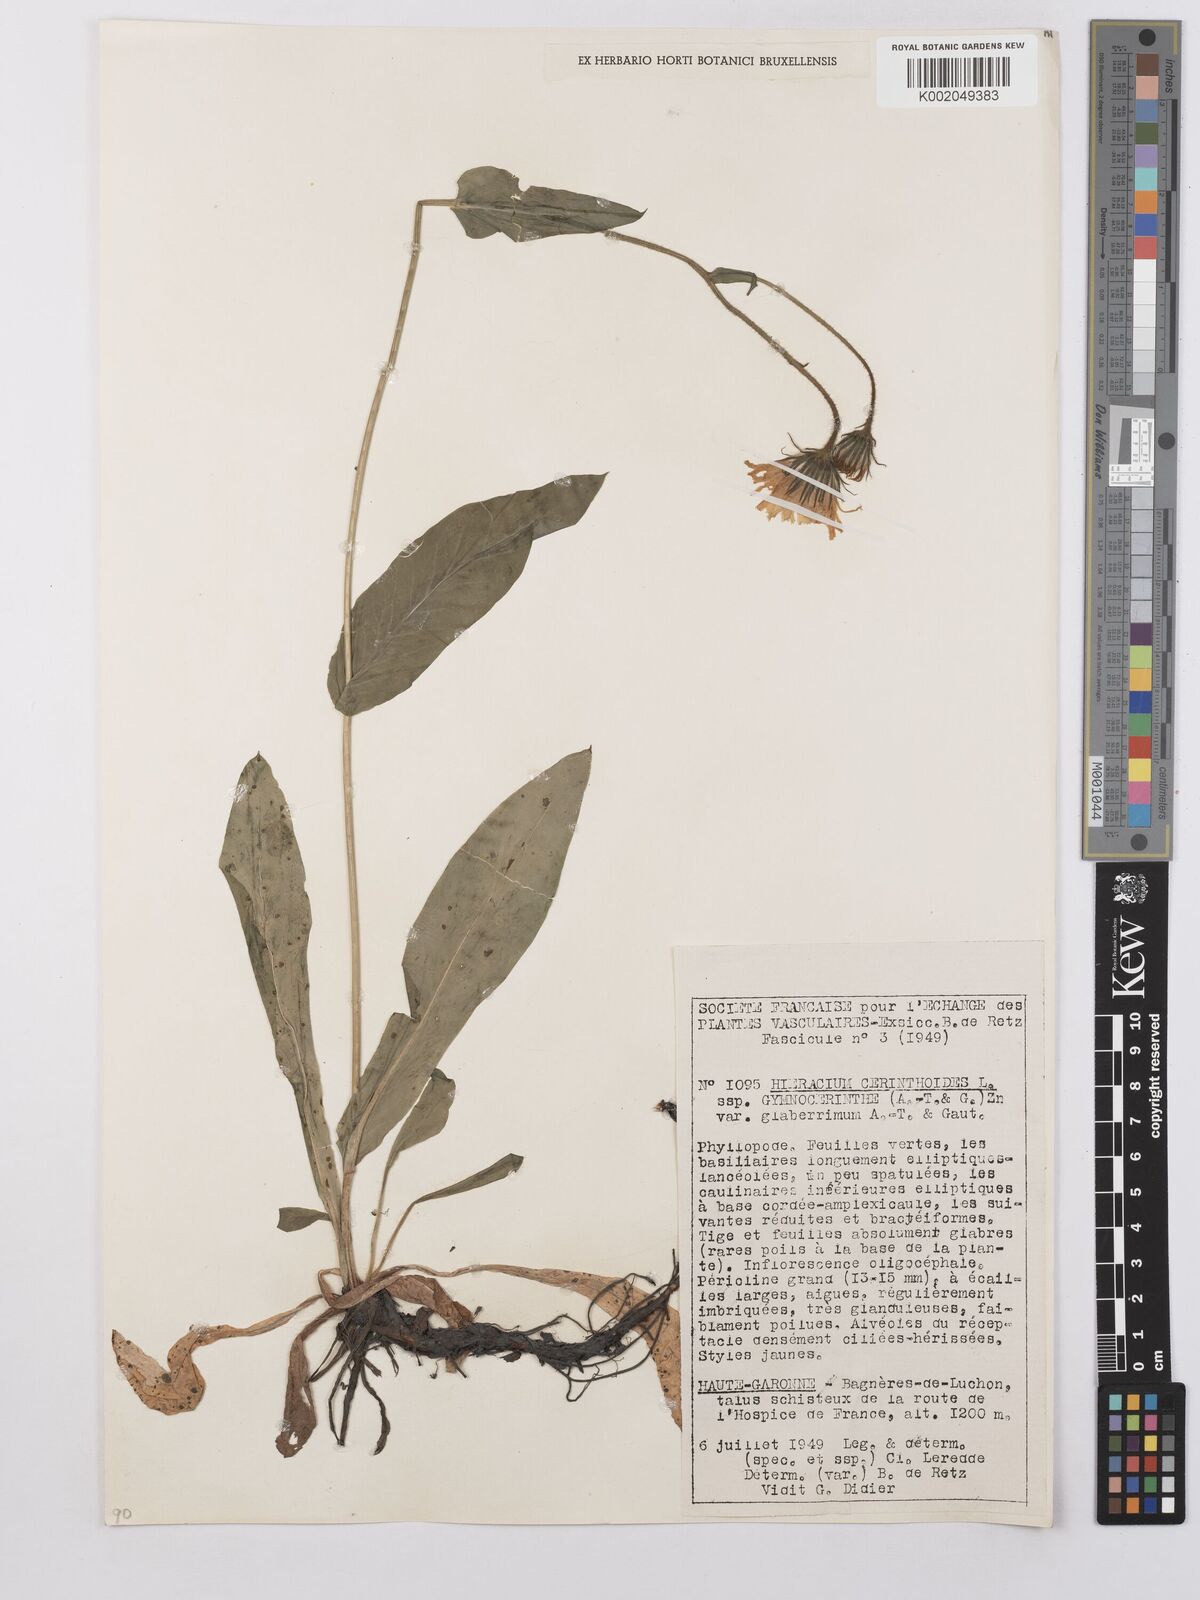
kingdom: Plantae
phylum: Tracheophyta
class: Magnoliopsida
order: Asterales
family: Asteraceae
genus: Hieracium
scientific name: Hieracium cerinthoides
